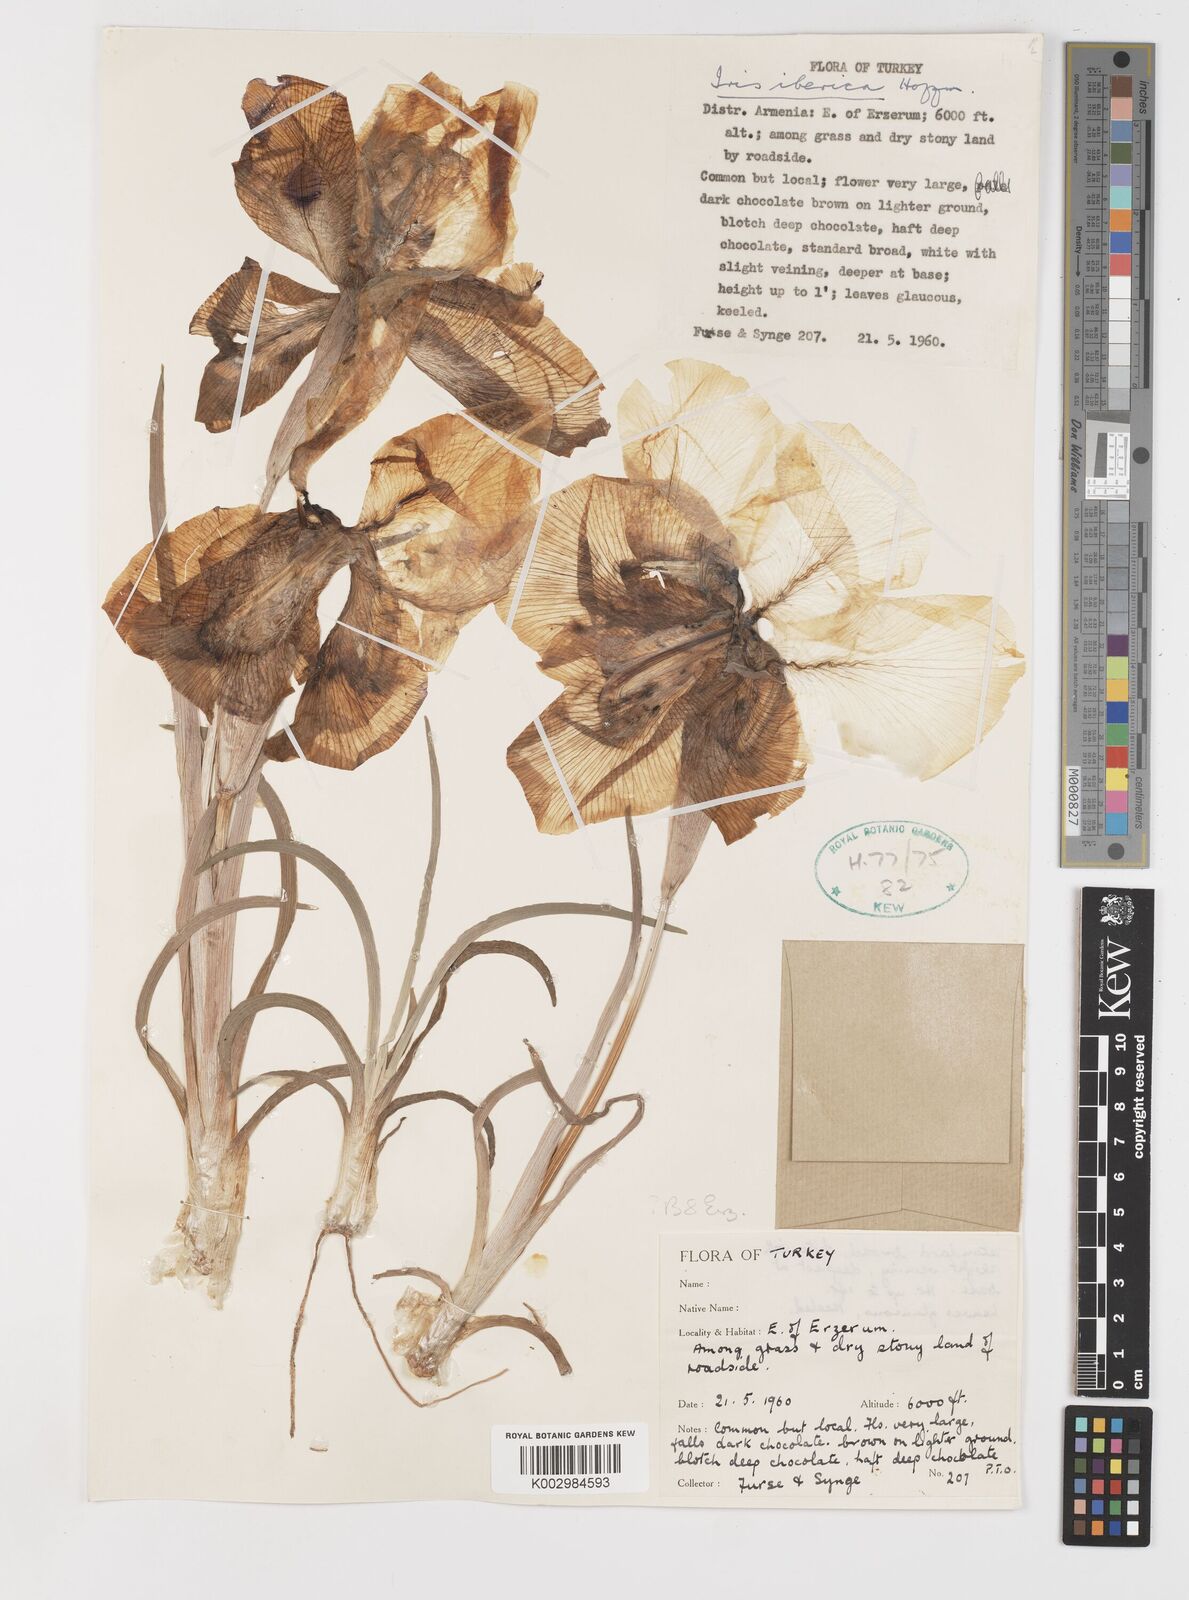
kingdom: Plantae
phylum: Tracheophyta
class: Liliopsida
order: Asparagales
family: Iridaceae
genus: Iris
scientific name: Iris iberica
